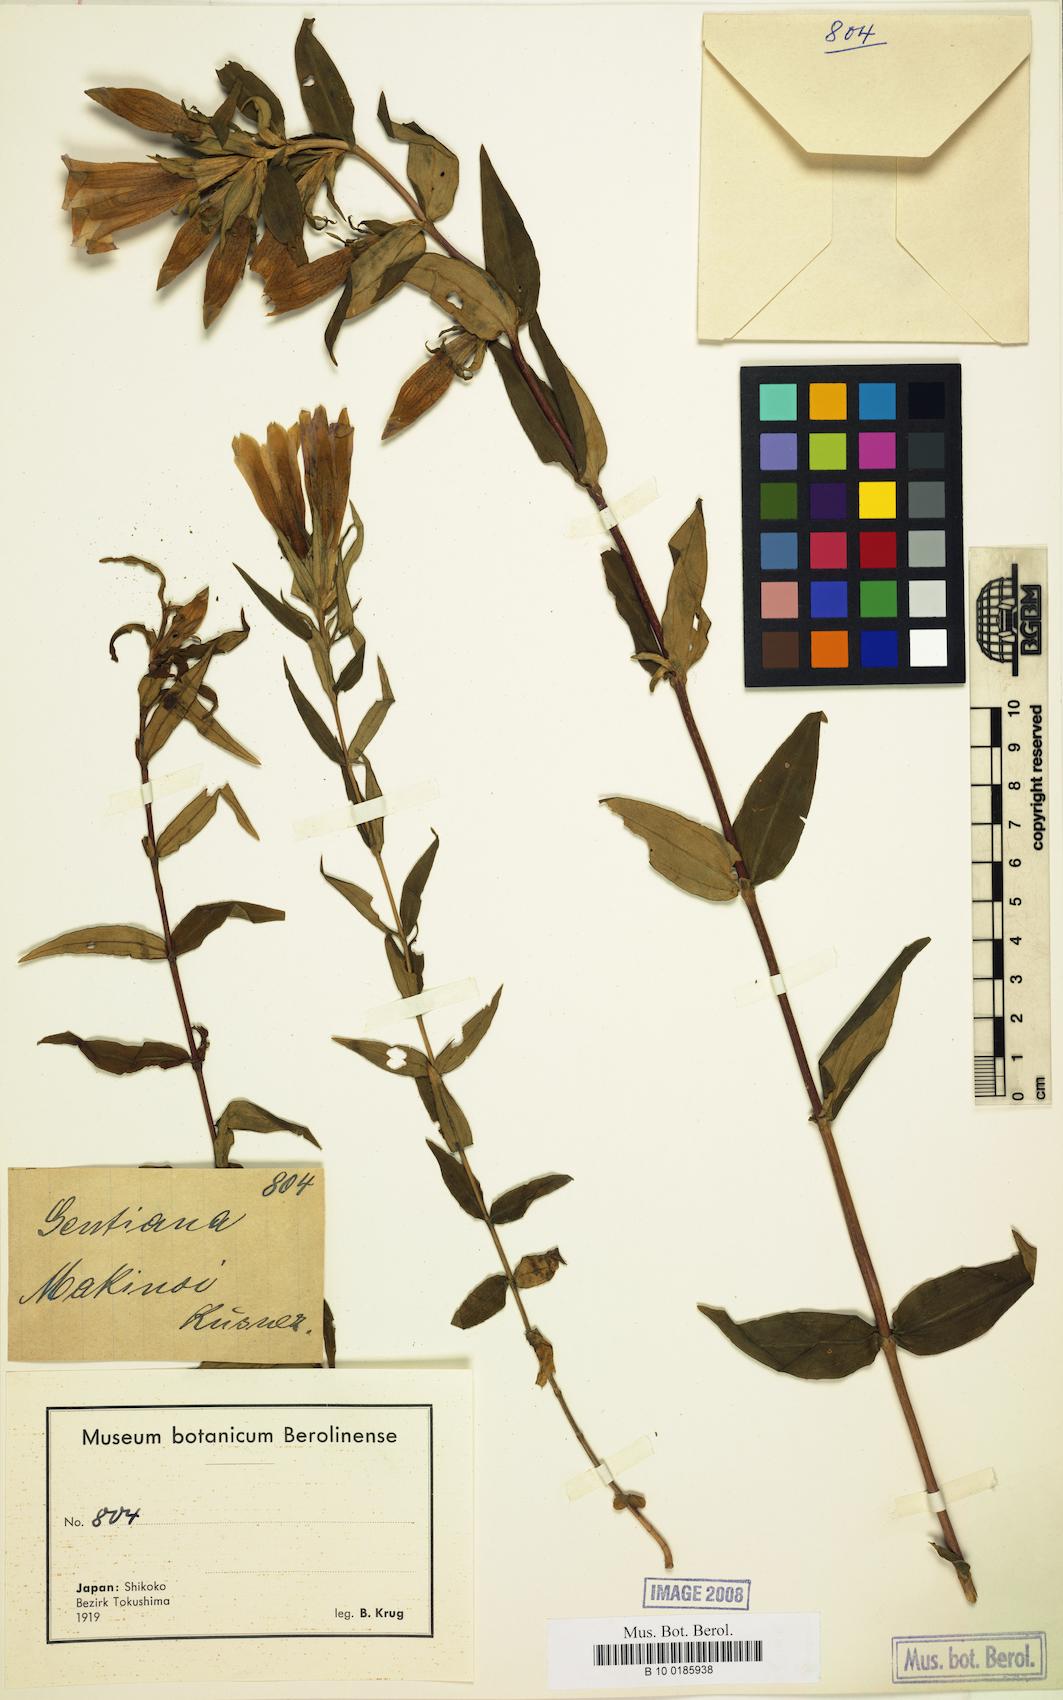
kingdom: Plantae
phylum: Tracheophyta
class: Magnoliopsida
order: Gentianales
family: Gentianaceae
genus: Gentiana
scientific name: Gentiana makinoi
